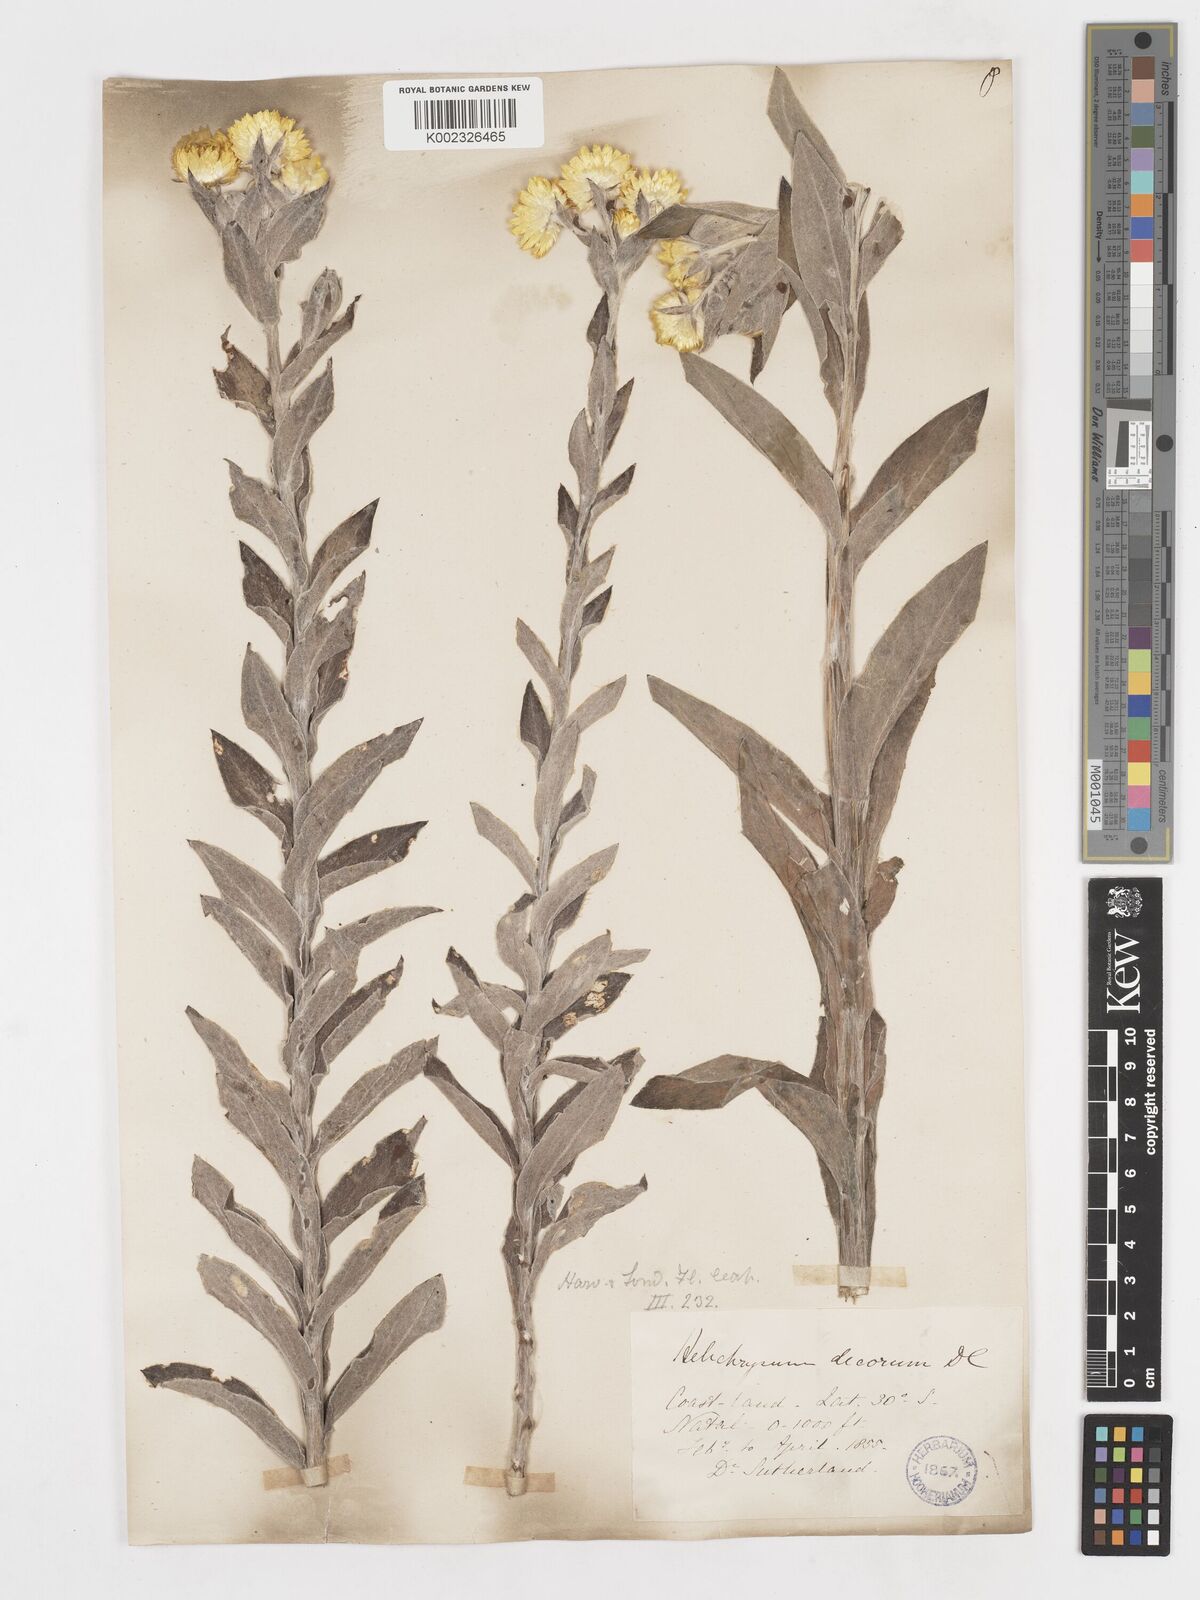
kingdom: Plantae
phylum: Tracheophyta
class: Magnoliopsida
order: Asterales
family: Asteraceae
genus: Helichrysum
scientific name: Helichrysum decorum
